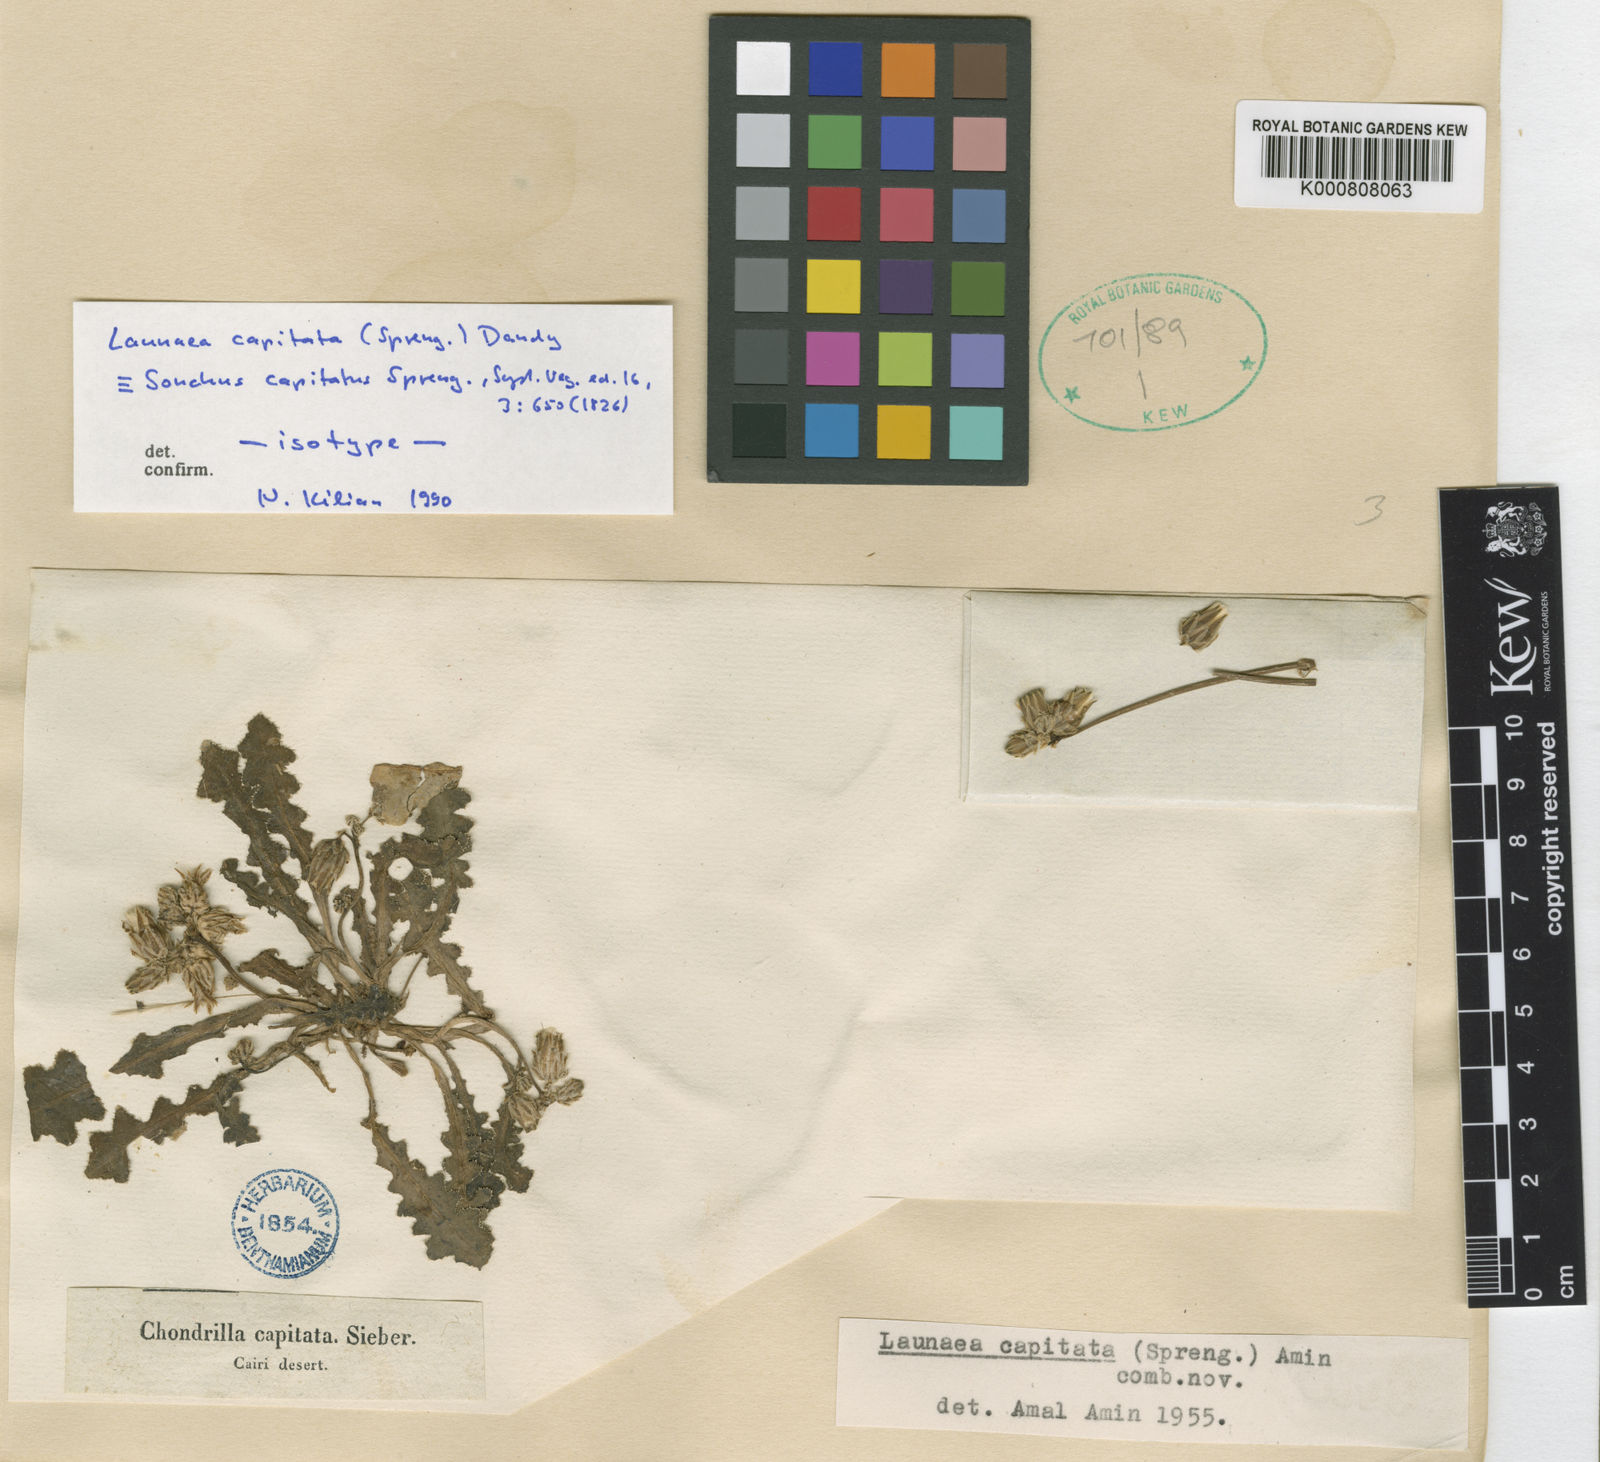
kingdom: Plantae
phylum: Tracheophyta
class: Magnoliopsida
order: Asterales
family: Asteraceae
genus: Launaea
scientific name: Launaea capitata
